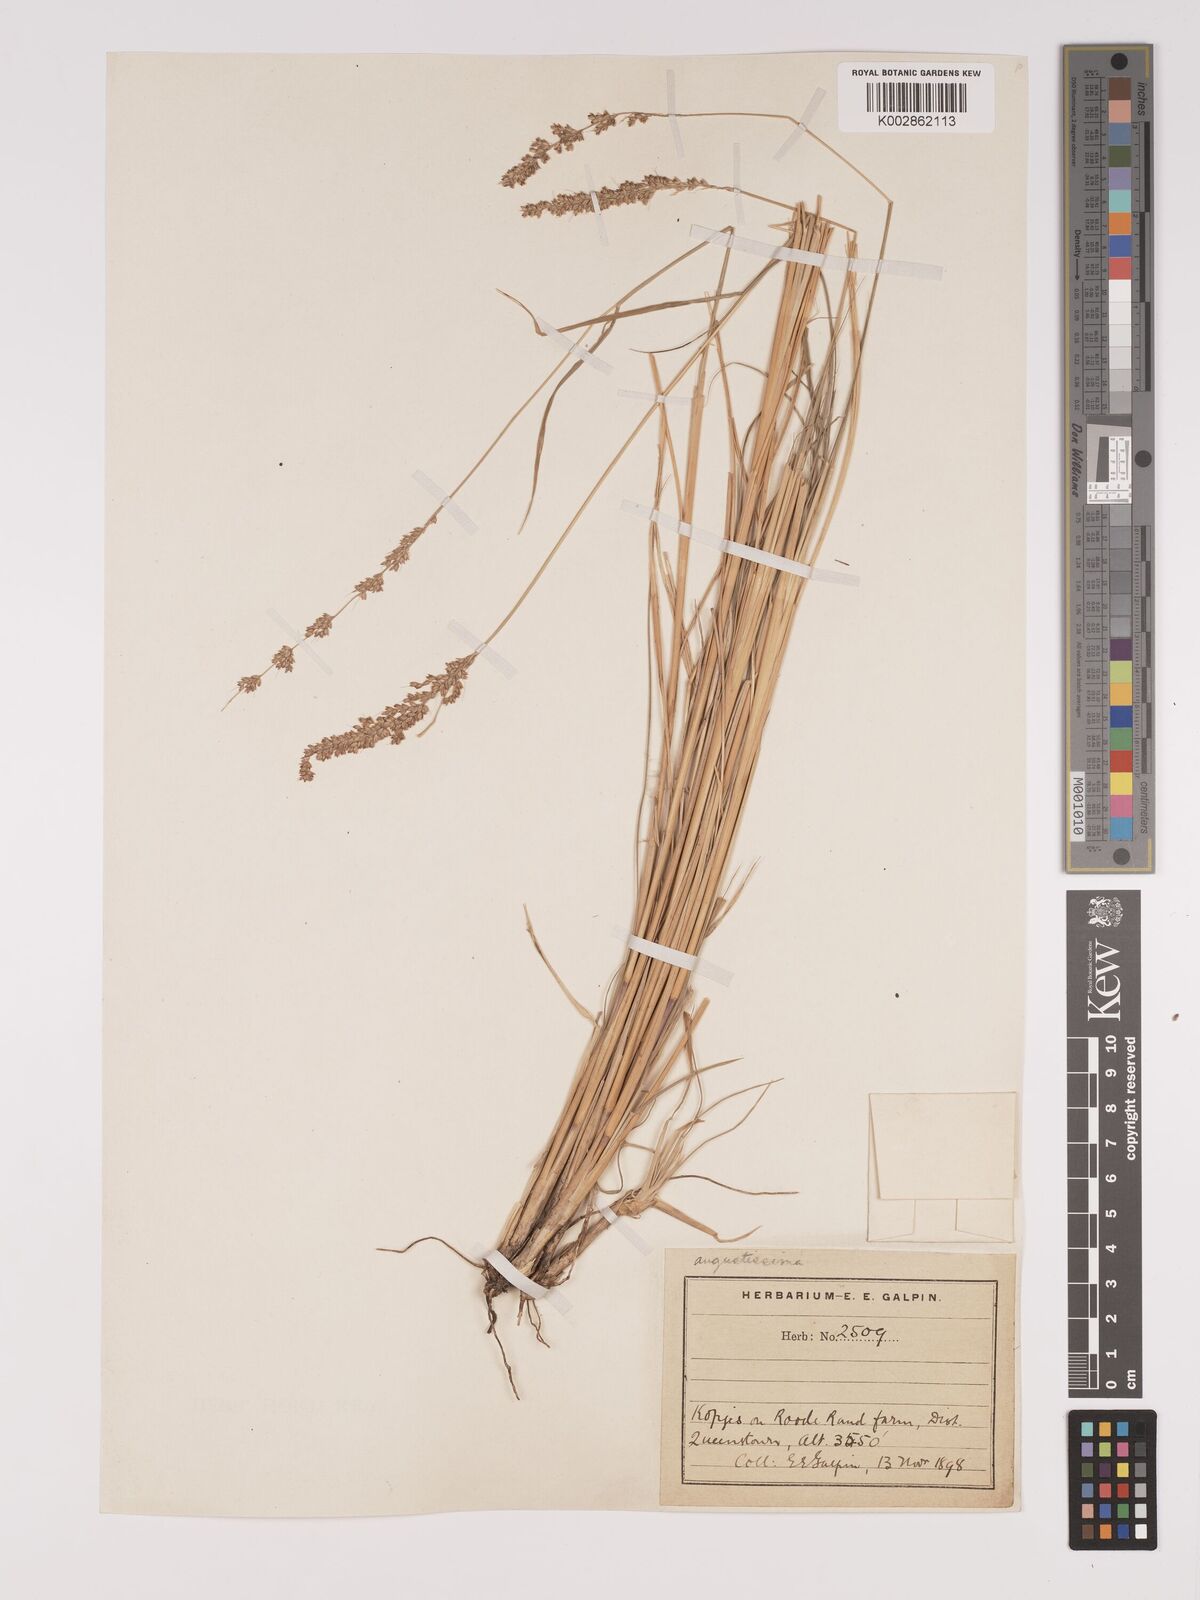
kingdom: Plantae
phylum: Tracheophyta
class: Liliopsida
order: Poales
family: Poaceae
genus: Setaria
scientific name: Setaria lindenbergiana
